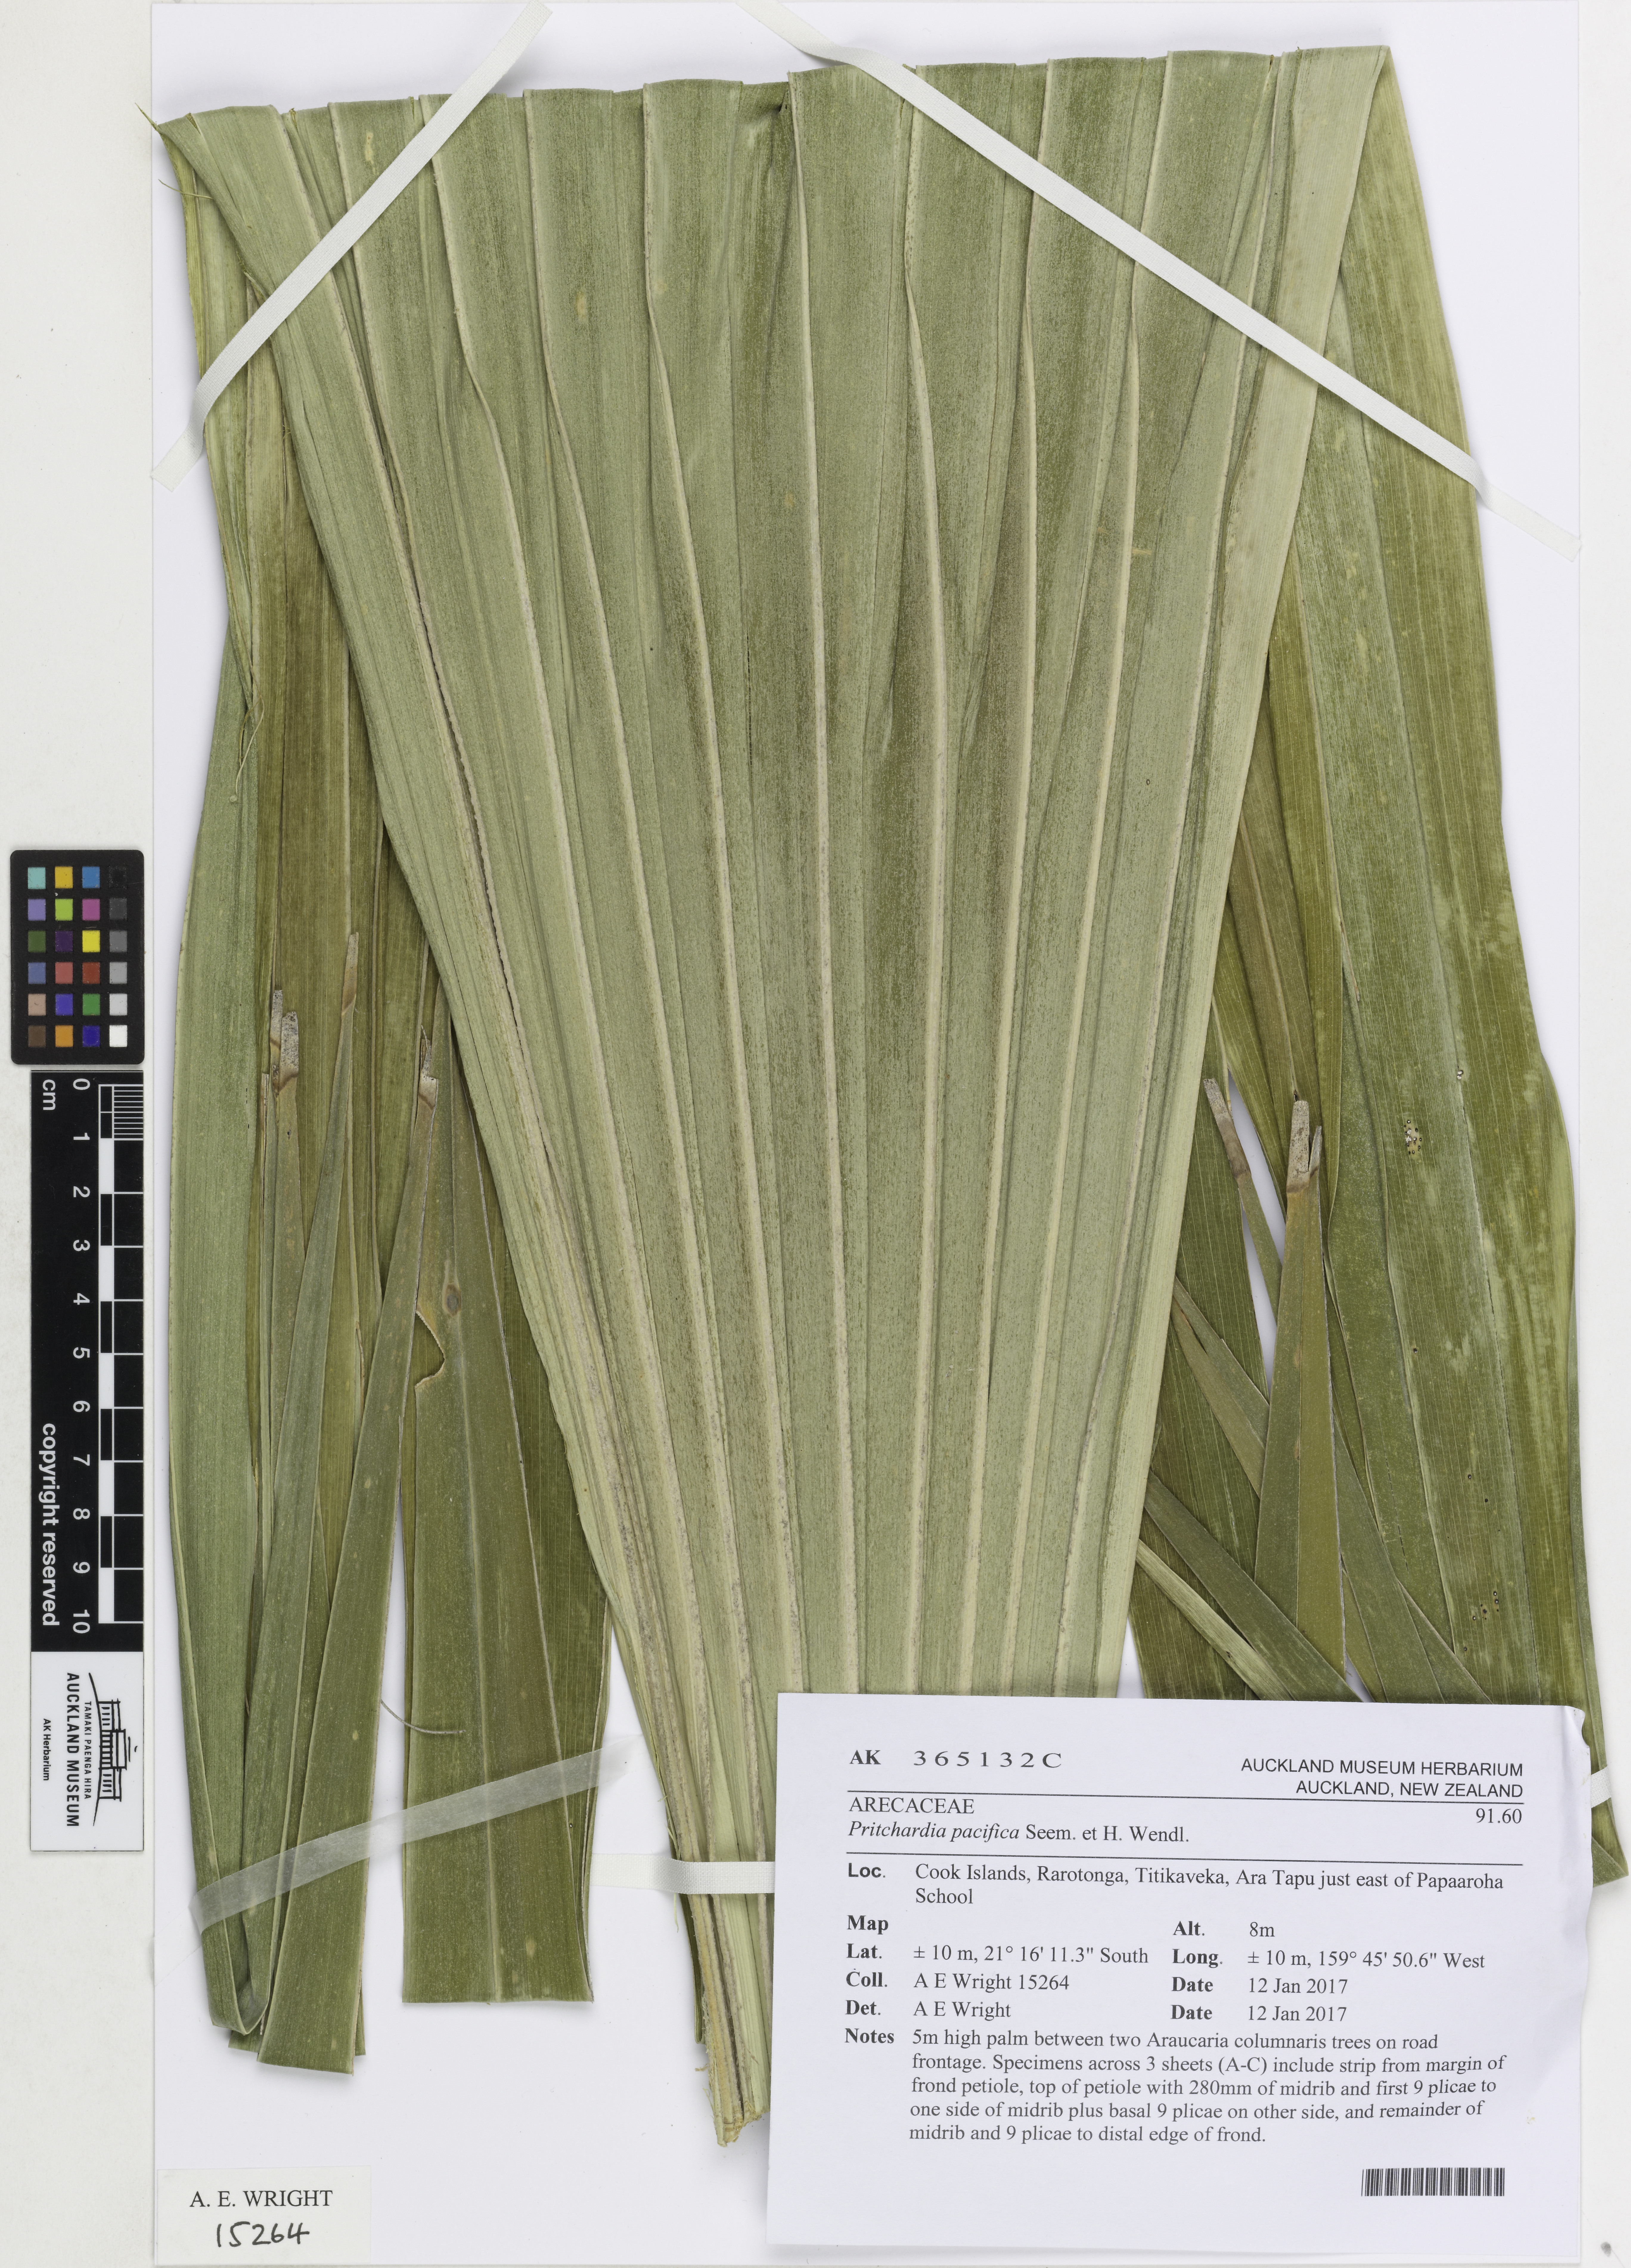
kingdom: Plantae
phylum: Tracheophyta
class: Liliopsida
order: Arecales
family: Arecaceae
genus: Pritchardia
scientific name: Pritchardia pacifica
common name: Fiji fan palm
